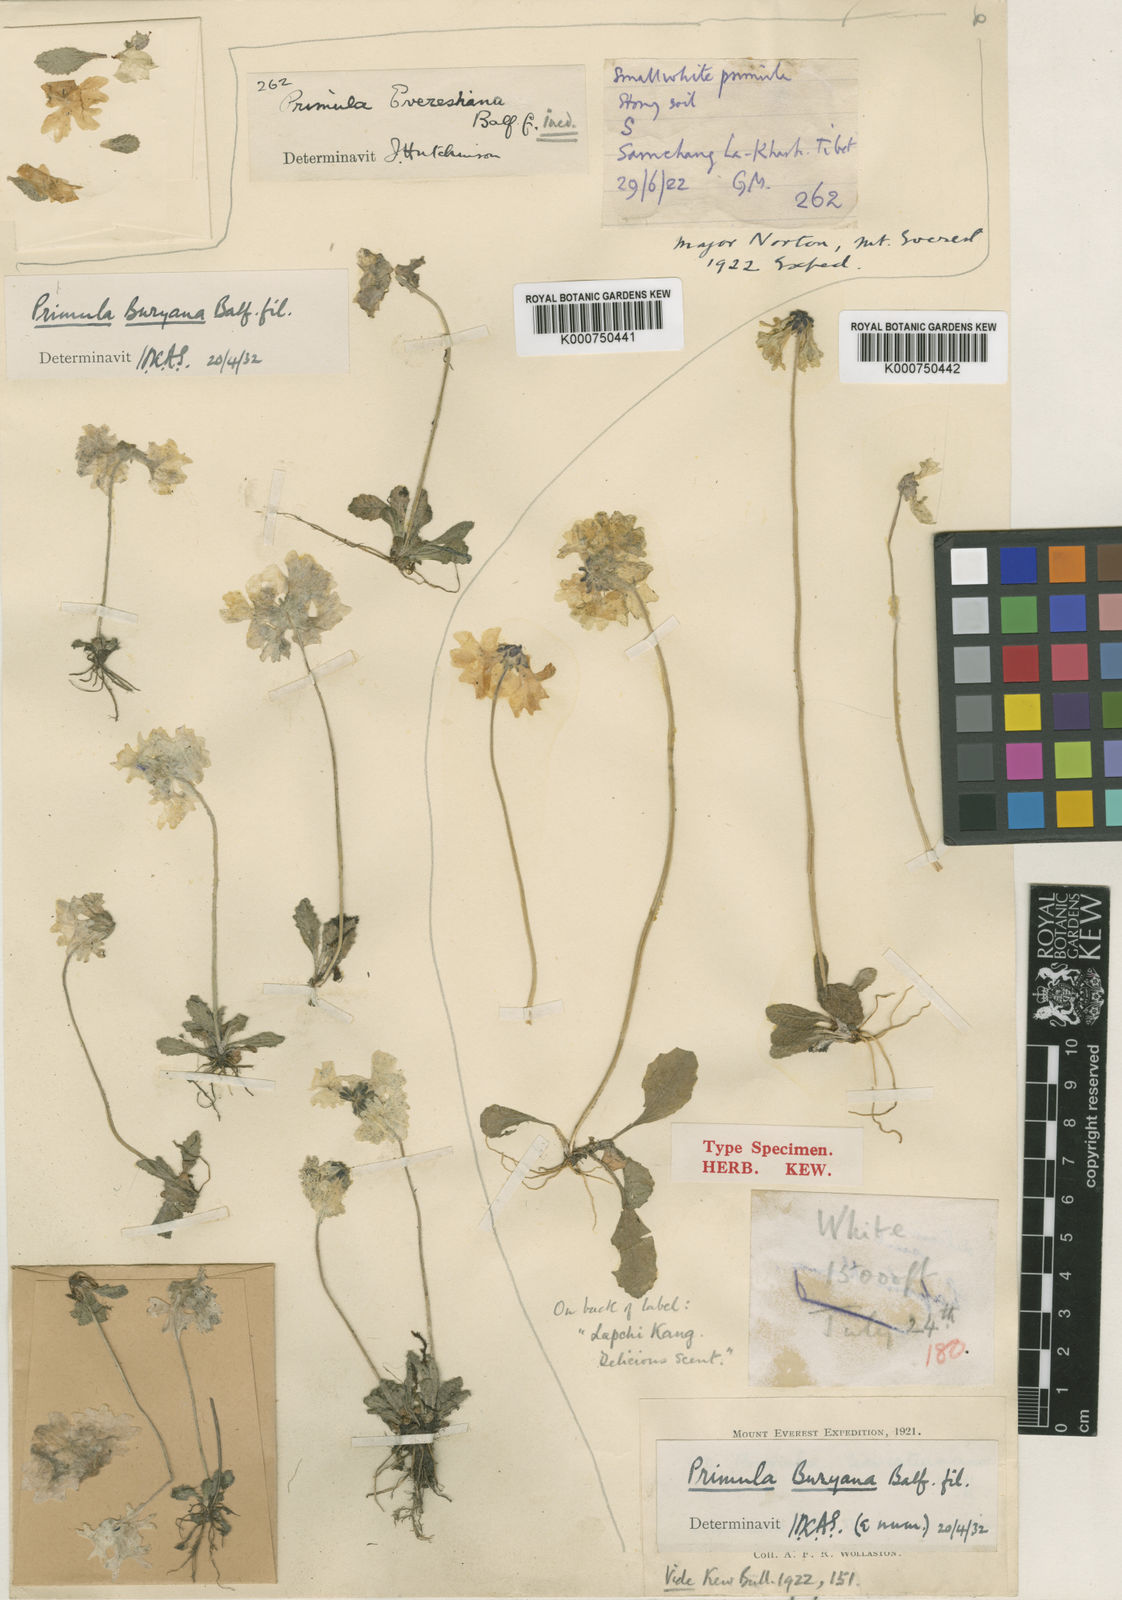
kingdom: Plantae
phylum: Tracheophyta
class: Magnoliopsida
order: Ericales
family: Primulaceae
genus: Primula
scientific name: Primula buryana
